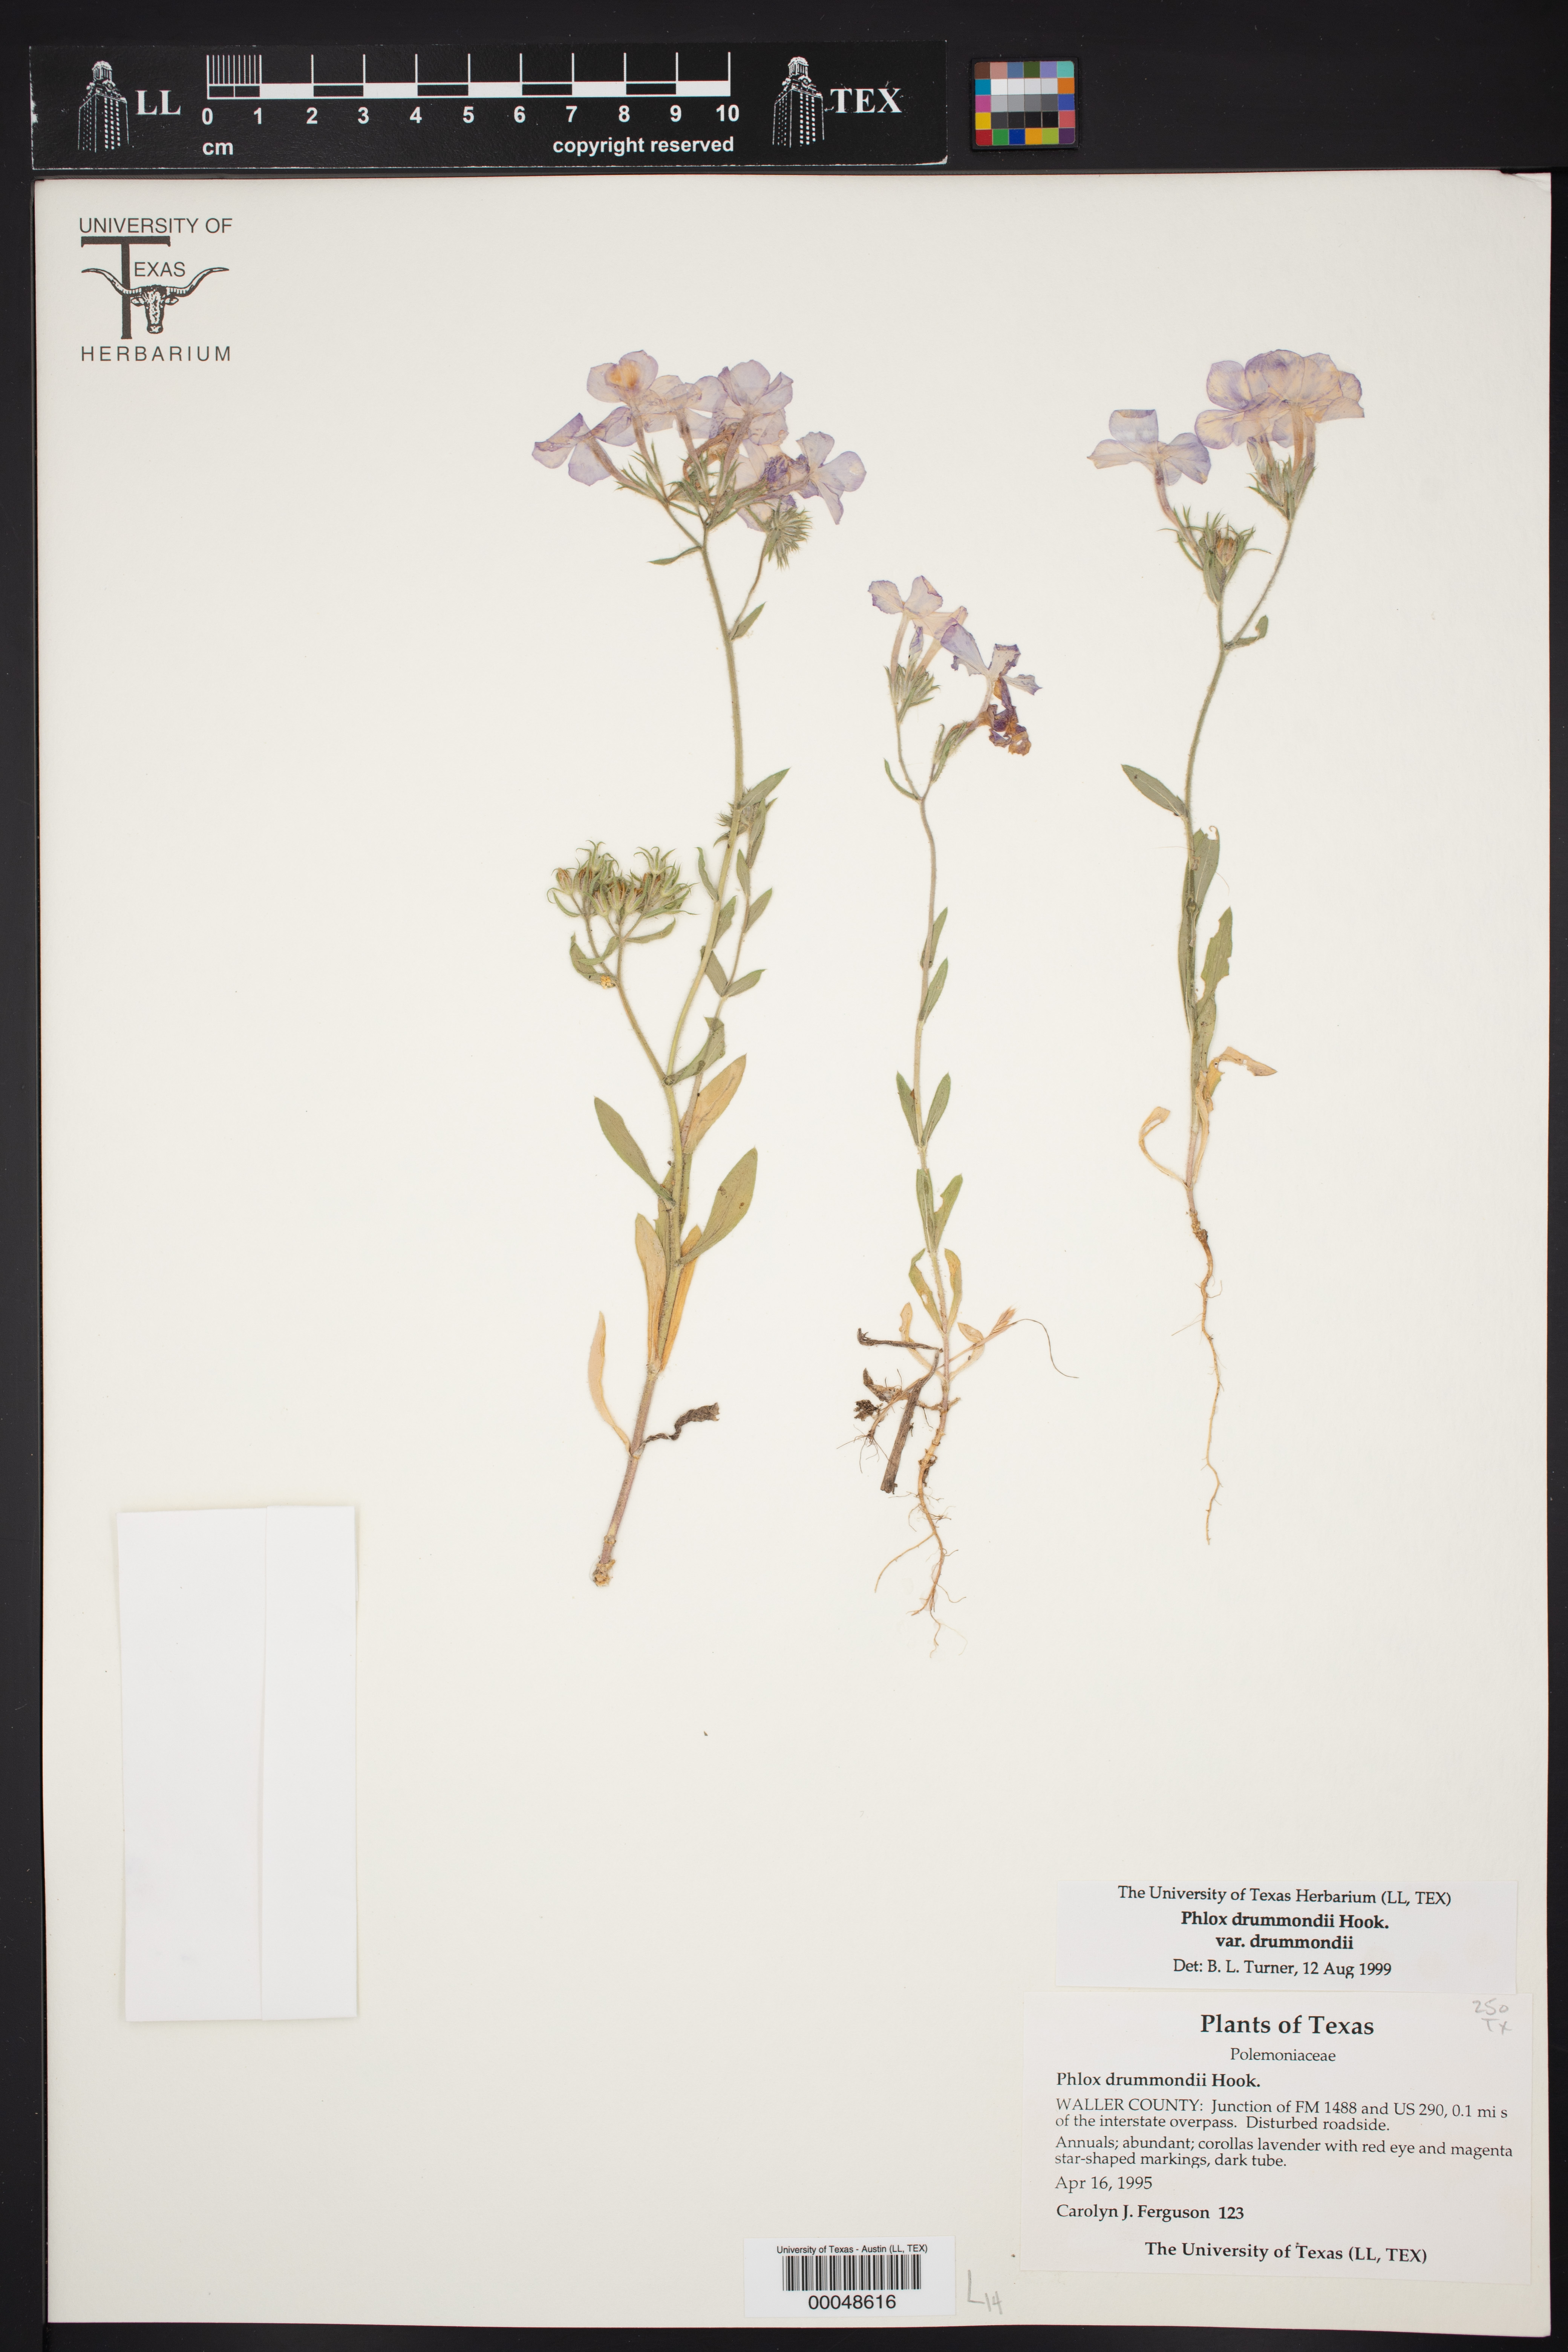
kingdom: Plantae
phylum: Tracheophyta
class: Magnoliopsida
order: Ericales
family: Polemoniaceae
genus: Phlox
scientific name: Phlox drummondii
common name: Drummond's phlox
